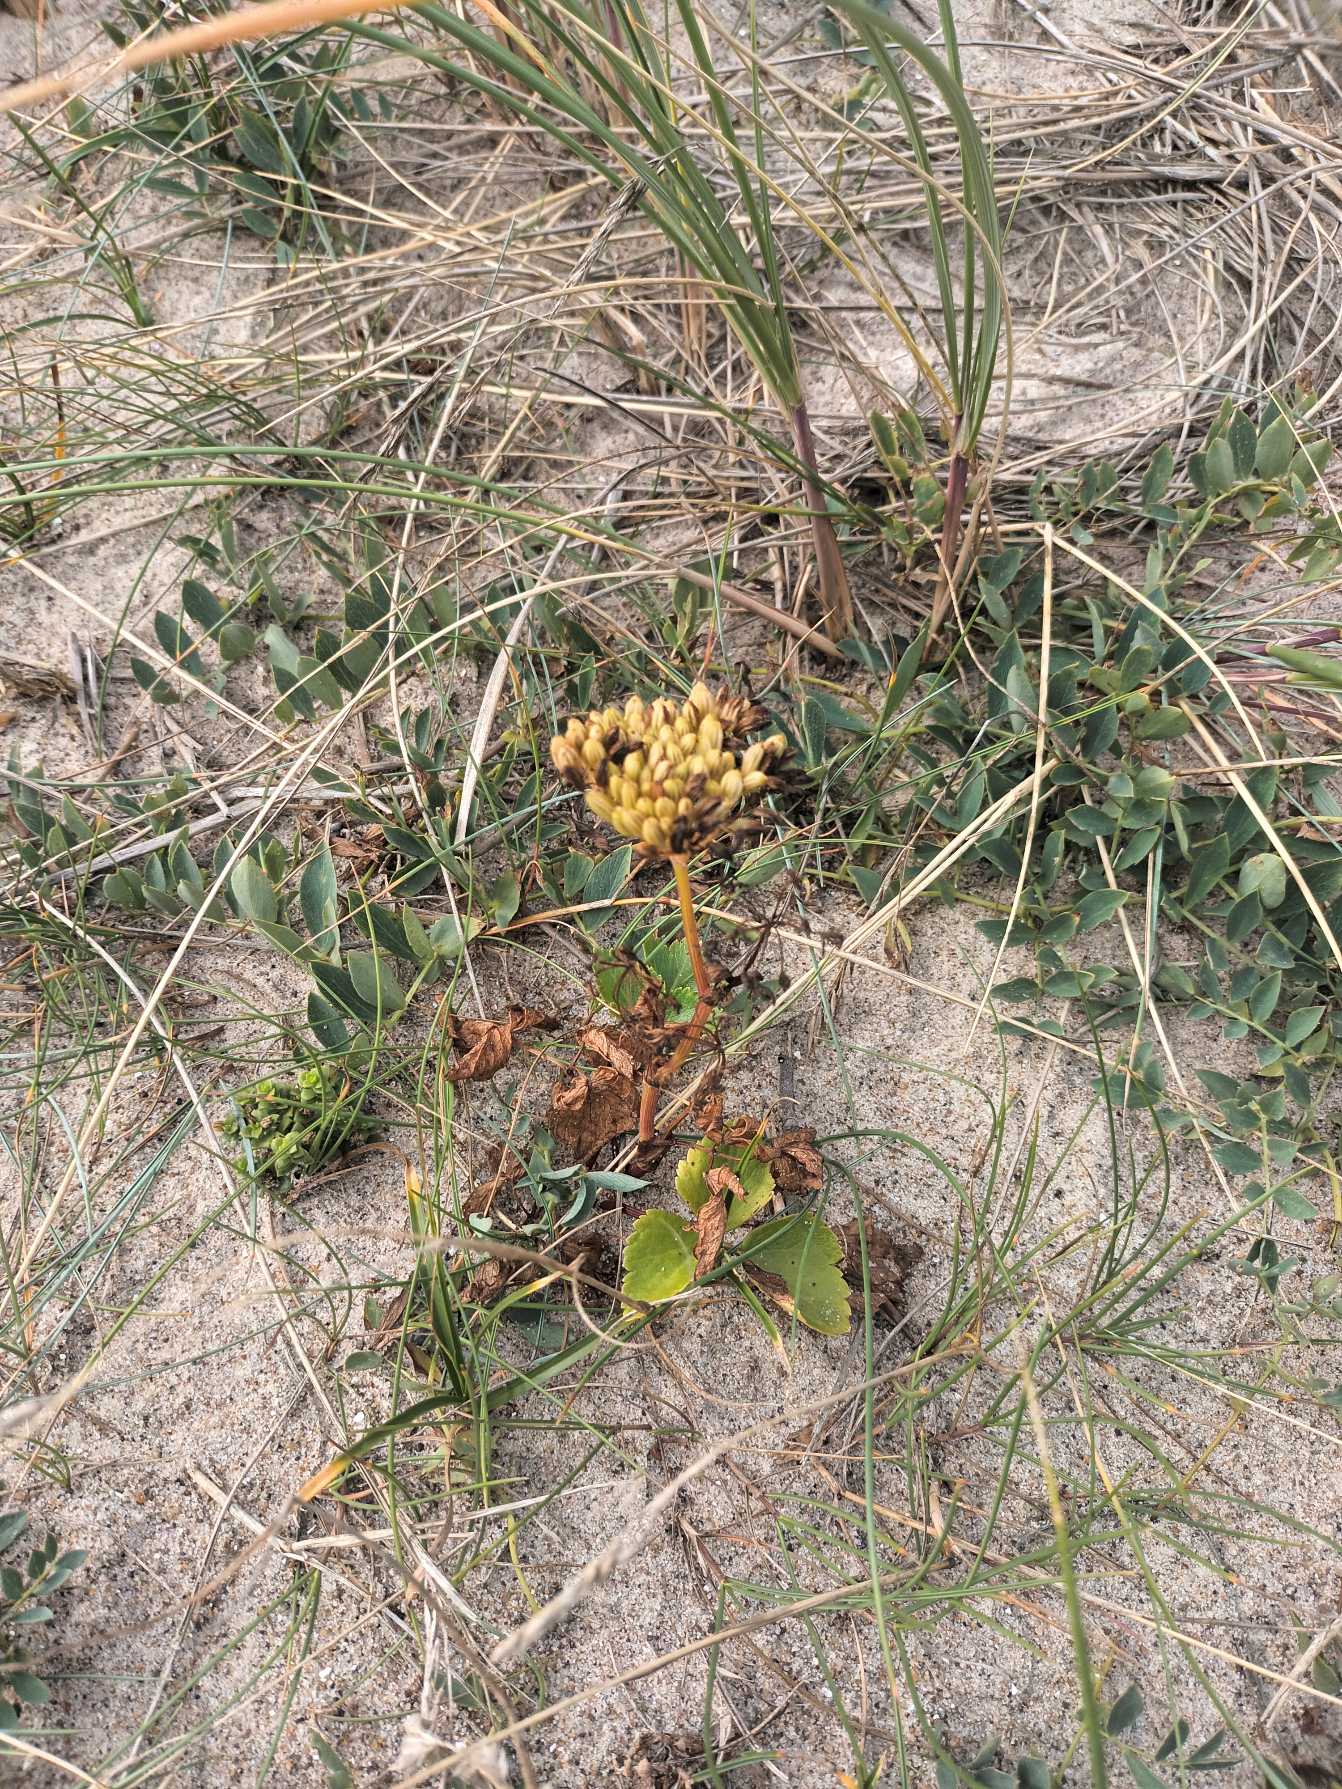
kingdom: Plantae
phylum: Tracheophyta
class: Magnoliopsida
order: Apiales
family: Apiaceae
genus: Ligusticum
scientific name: Ligusticum scothicum
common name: Skotsk lostilk
